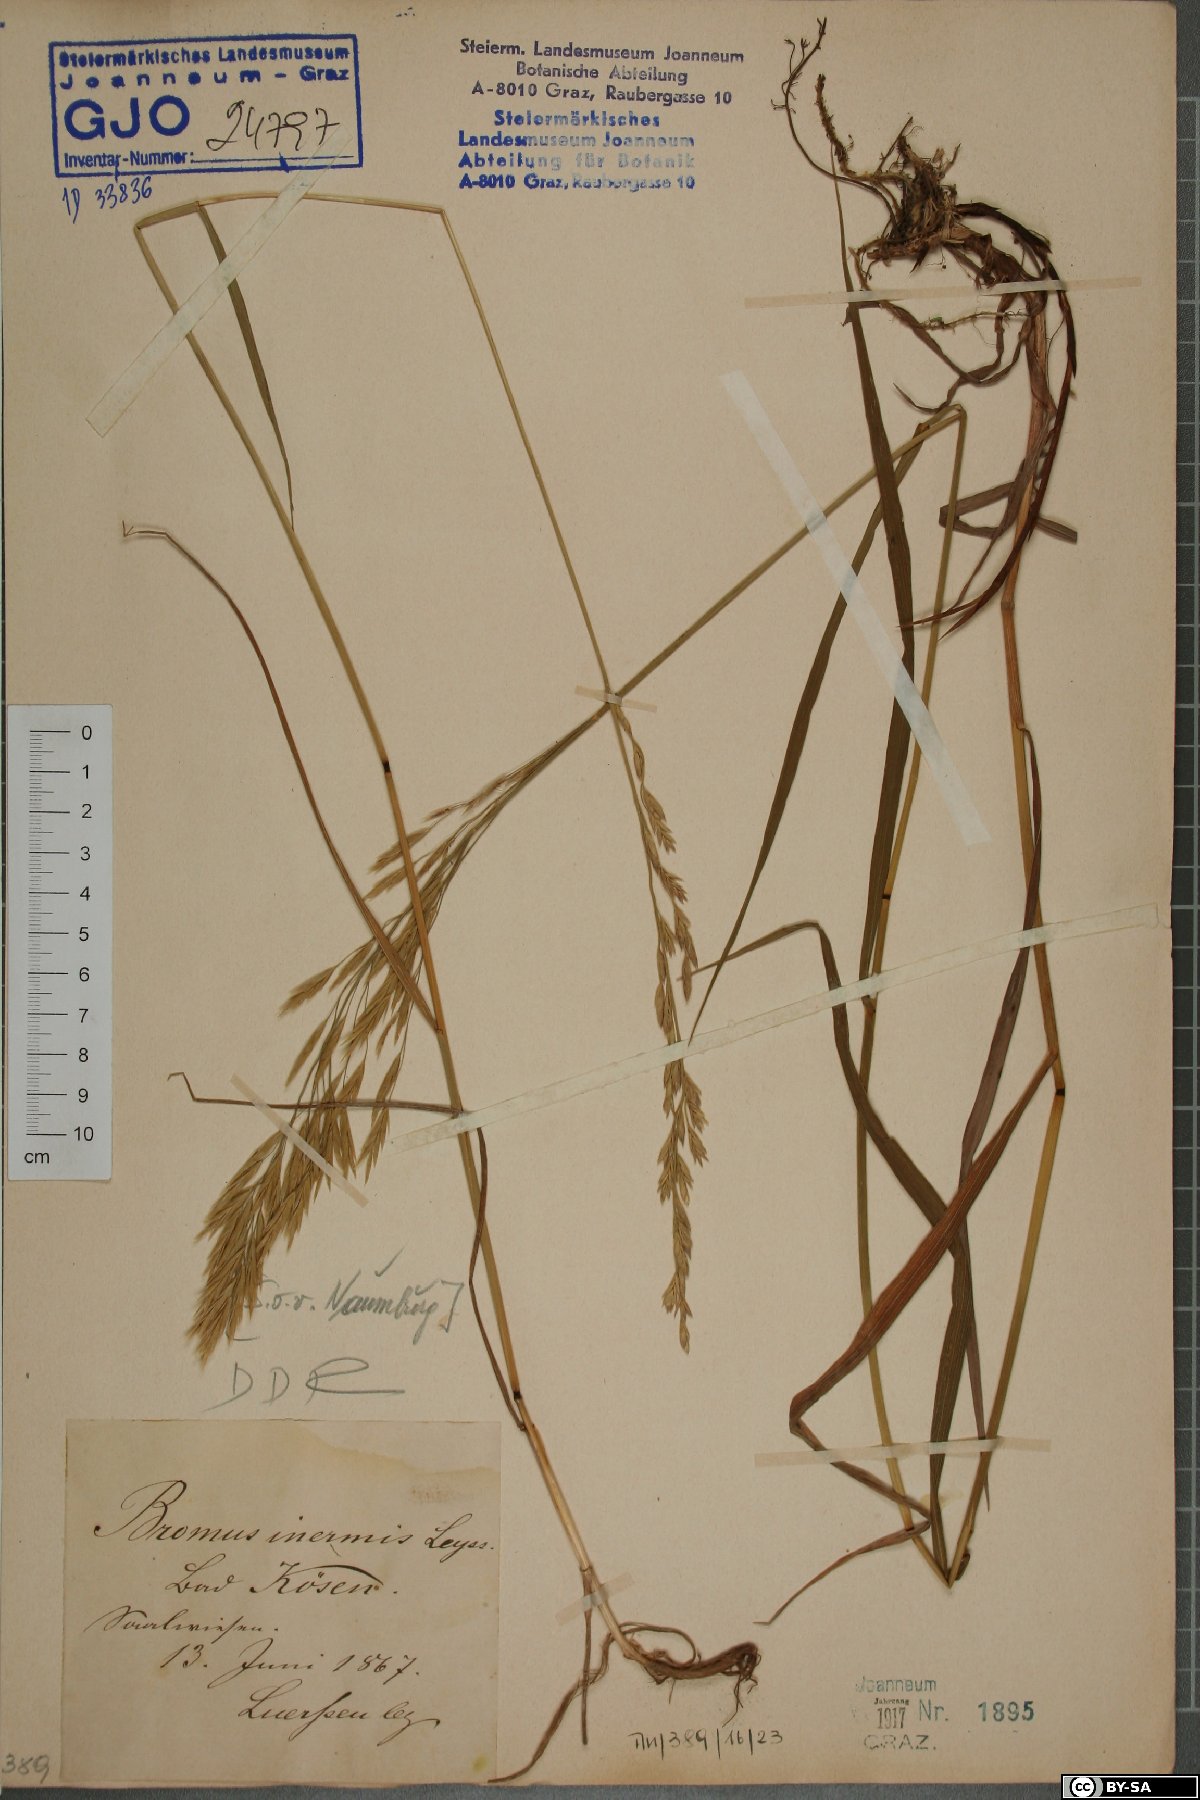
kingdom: Plantae
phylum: Tracheophyta
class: Liliopsida
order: Poales
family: Poaceae
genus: Bromus
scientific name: Bromus inermis
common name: Smooth brome
